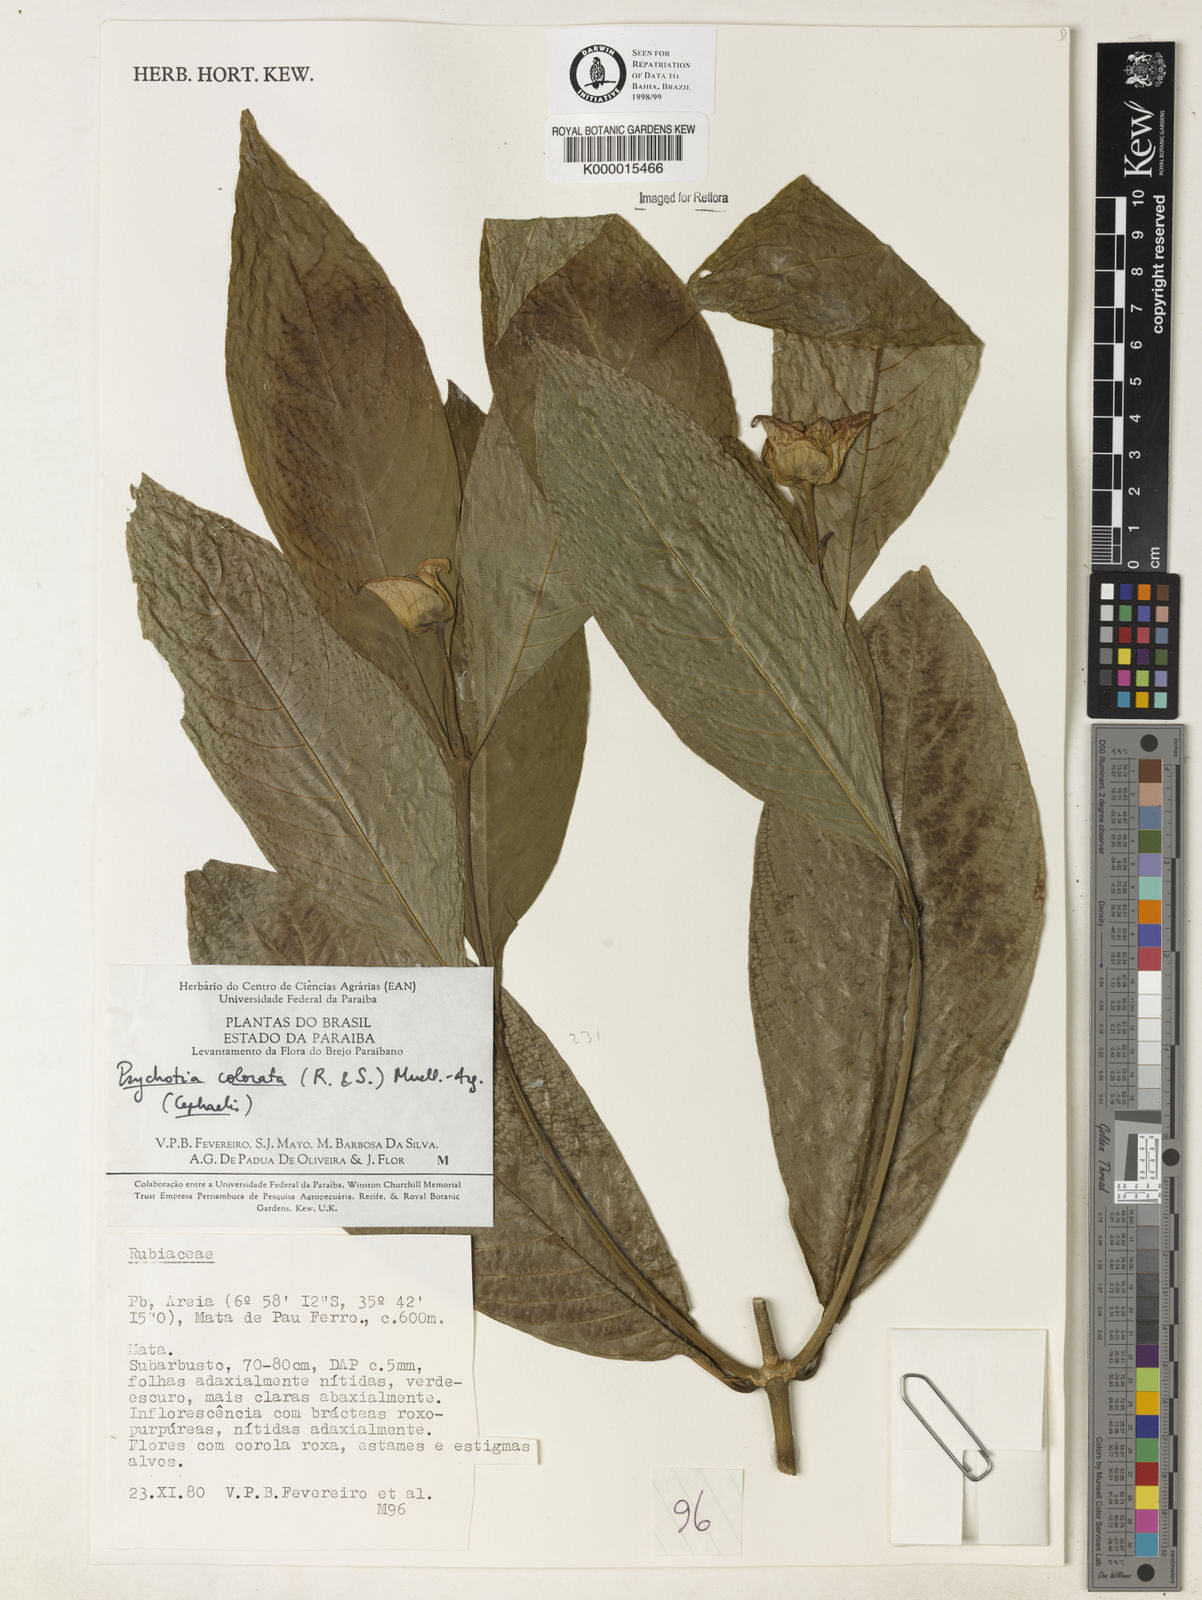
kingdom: Plantae
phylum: Tracheophyta
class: Magnoliopsida
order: Gentianales
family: Rubiaceae
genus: Psychotria
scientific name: Psychotria
